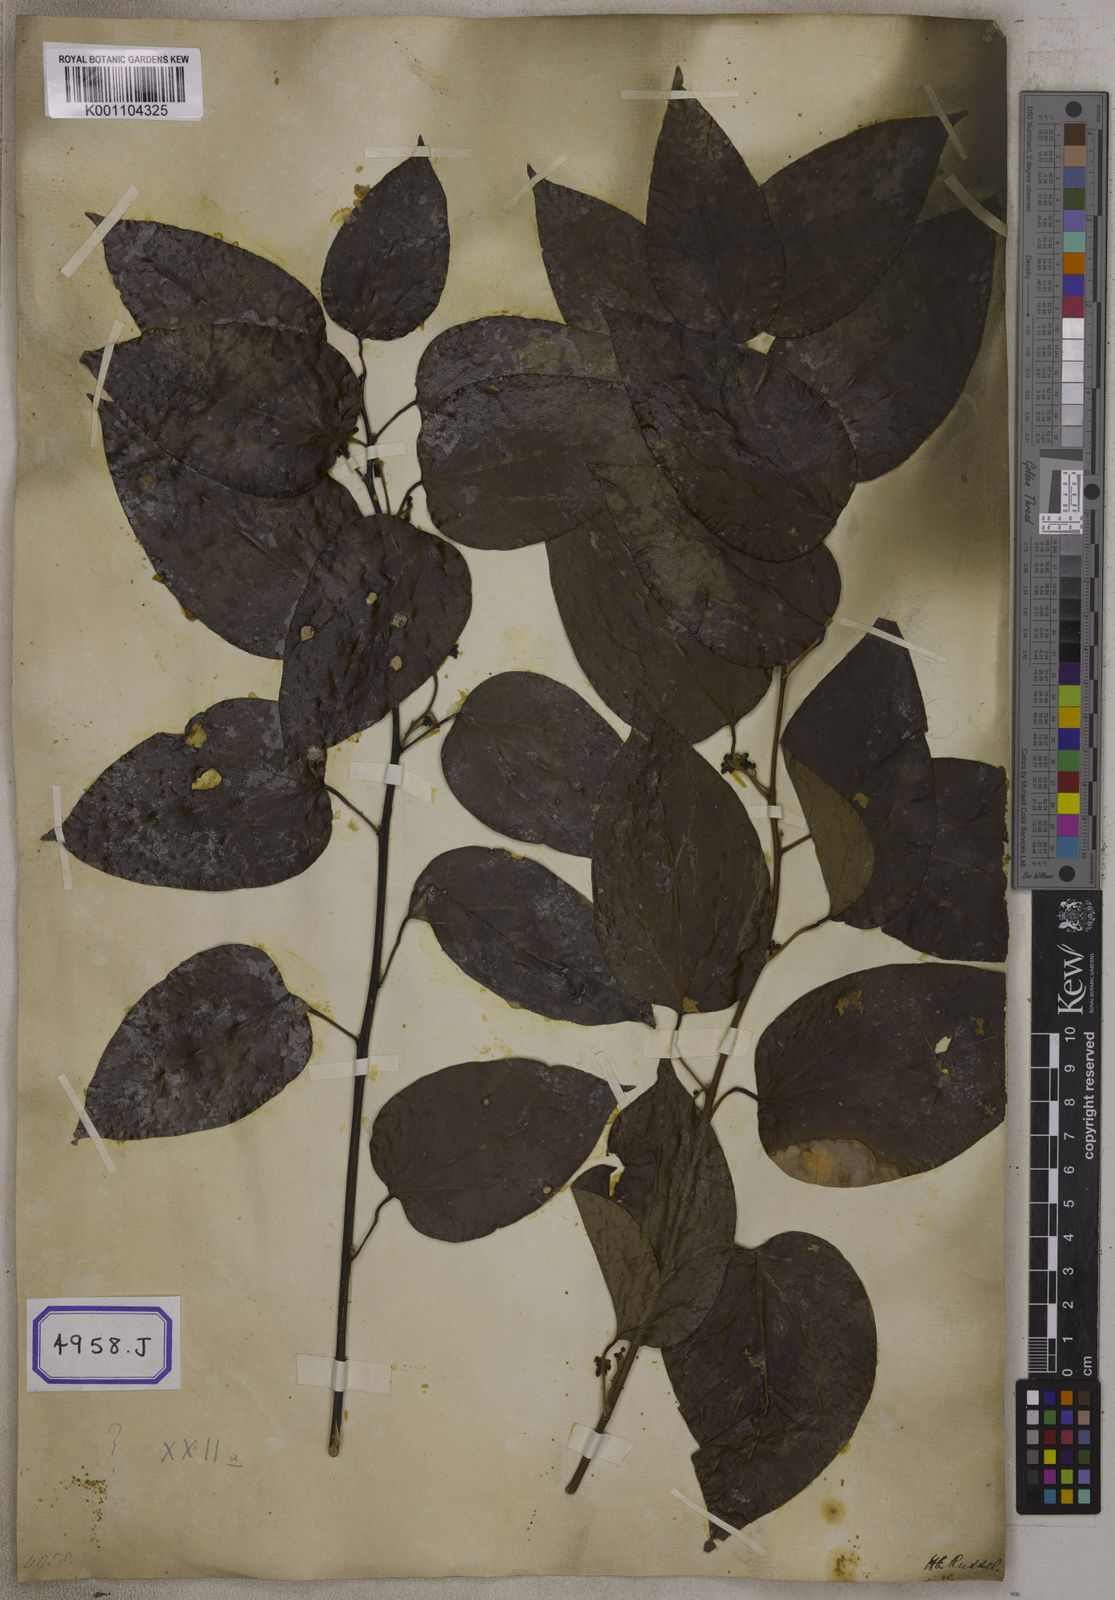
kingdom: Plantae
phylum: Tracheophyta
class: Magnoliopsida
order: Ranunculales
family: Menispermaceae
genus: Cocculus
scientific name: Cocculus
